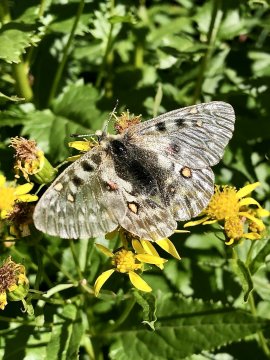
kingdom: Animalia
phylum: Arthropoda
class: Insecta
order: Lepidoptera
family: Papilionidae
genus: Parnassius
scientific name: Parnassius smintheus
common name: Rocky Mountain Parnassian
